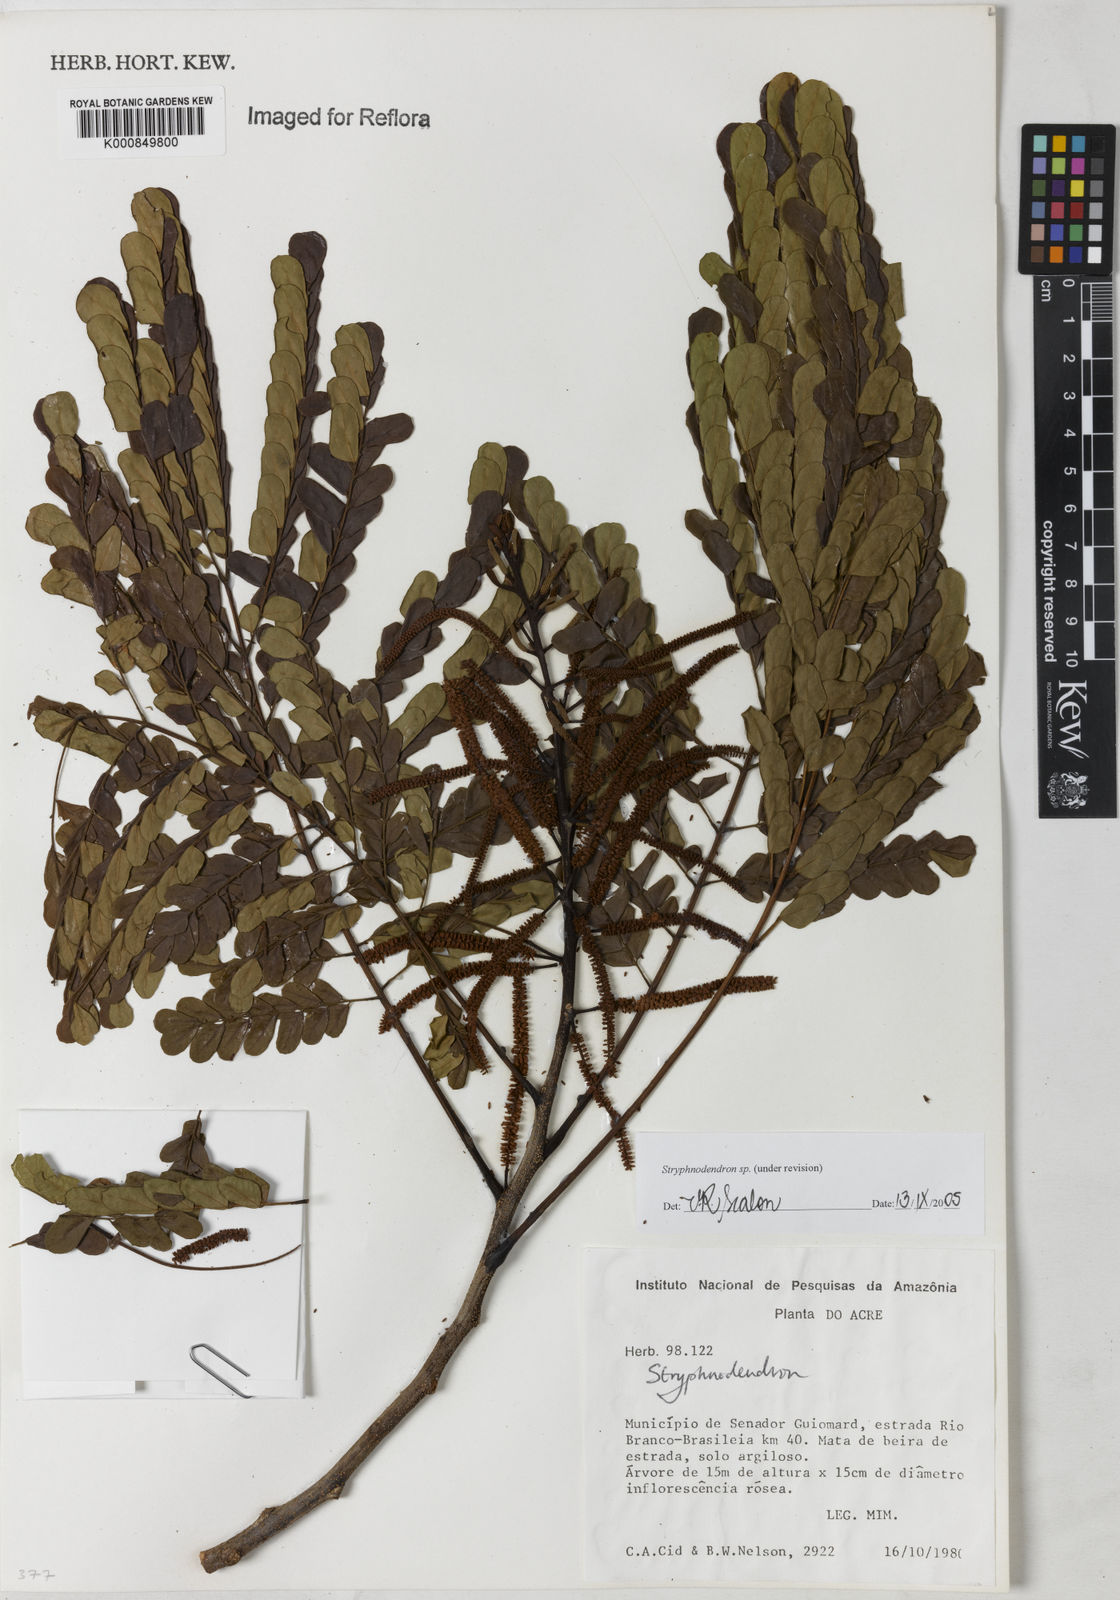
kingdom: Plantae
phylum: Tracheophyta
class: Magnoliopsida
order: Fabales
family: Fabaceae
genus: Stryphnodendron
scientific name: Stryphnodendron
